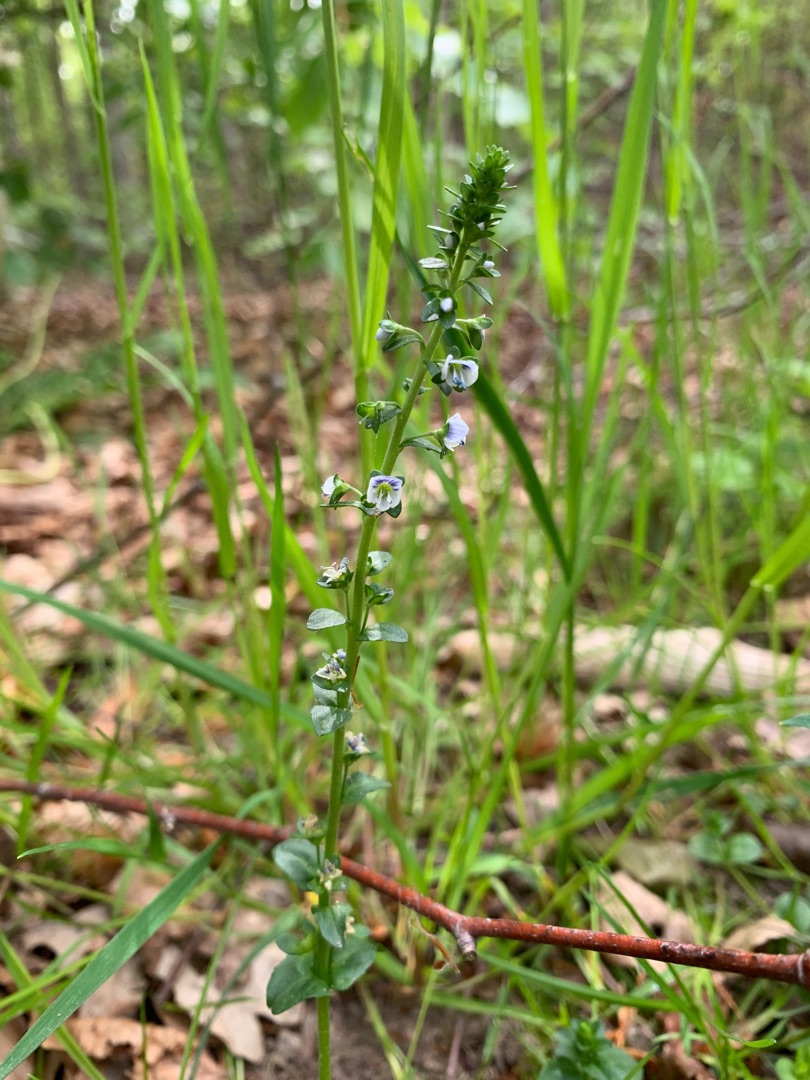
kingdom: Plantae
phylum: Tracheophyta
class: Magnoliopsida
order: Lamiales
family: Plantaginaceae
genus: Veronica
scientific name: Veronica serpyllifolia
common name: Glat ærenpris
